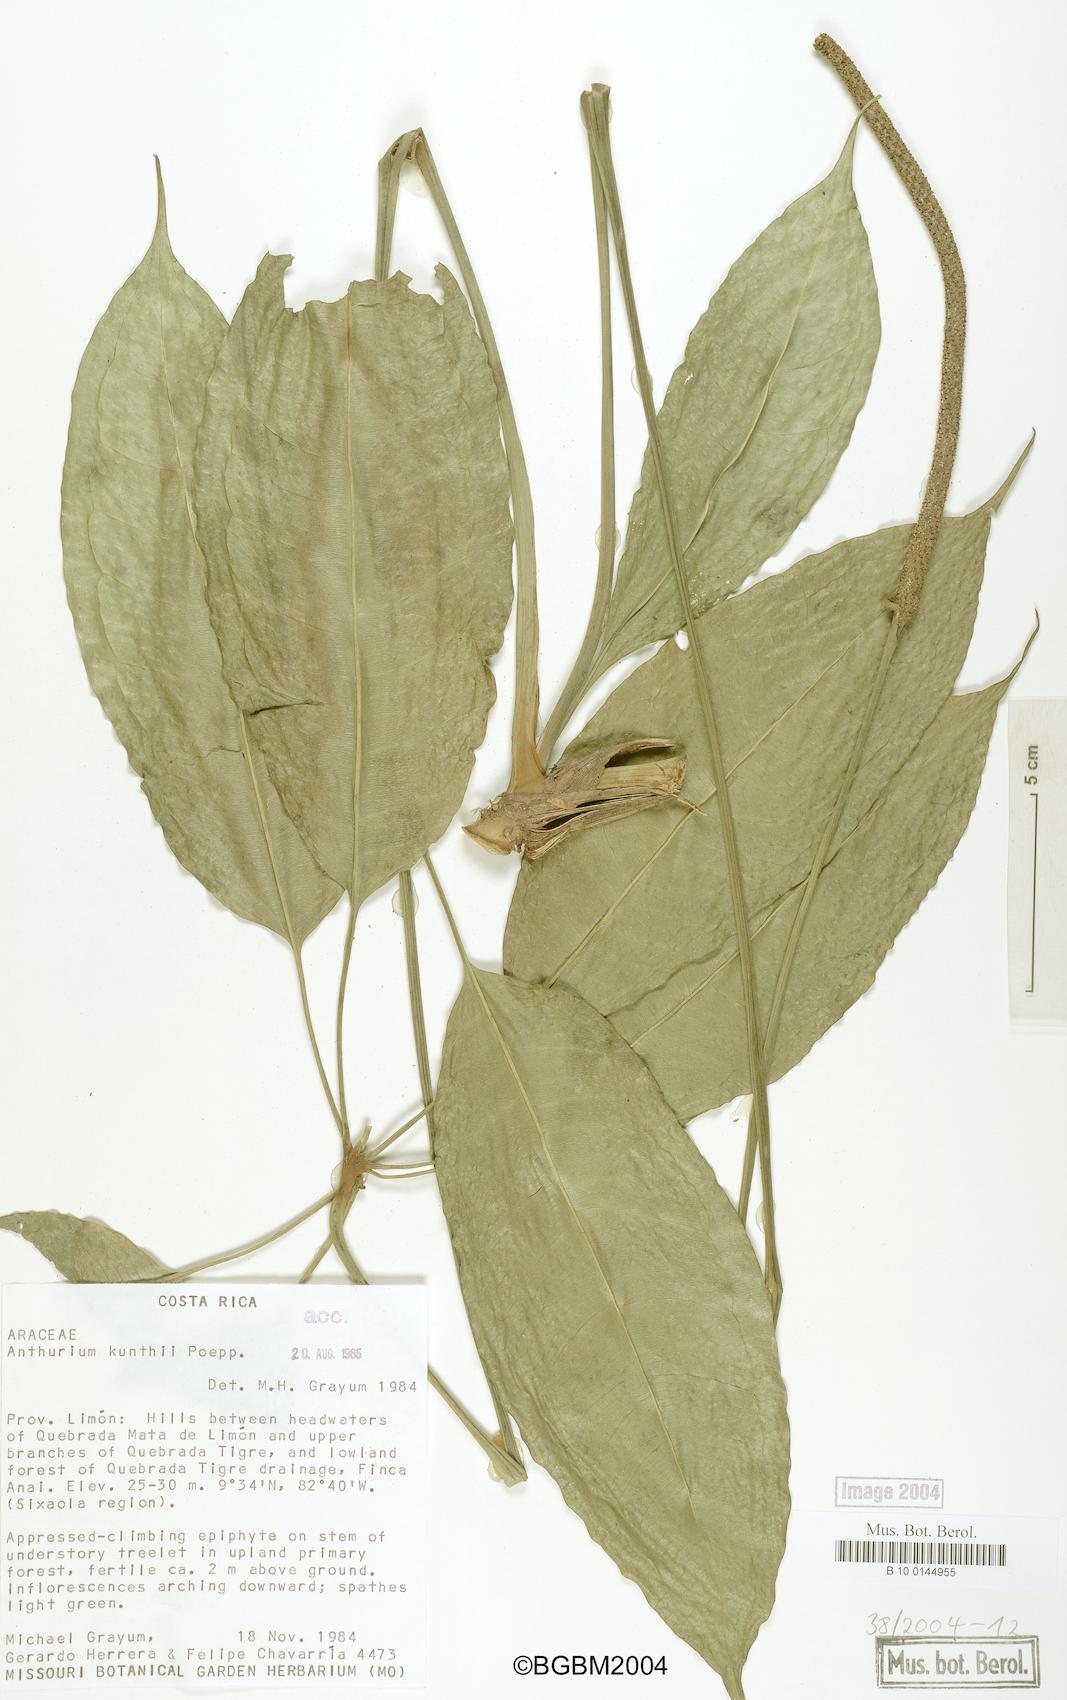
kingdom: Plantae
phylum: Tracheophyta
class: Liliopsida
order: Alismatales
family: Araceae
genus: Anthurium
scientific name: Anthurium kunthii
